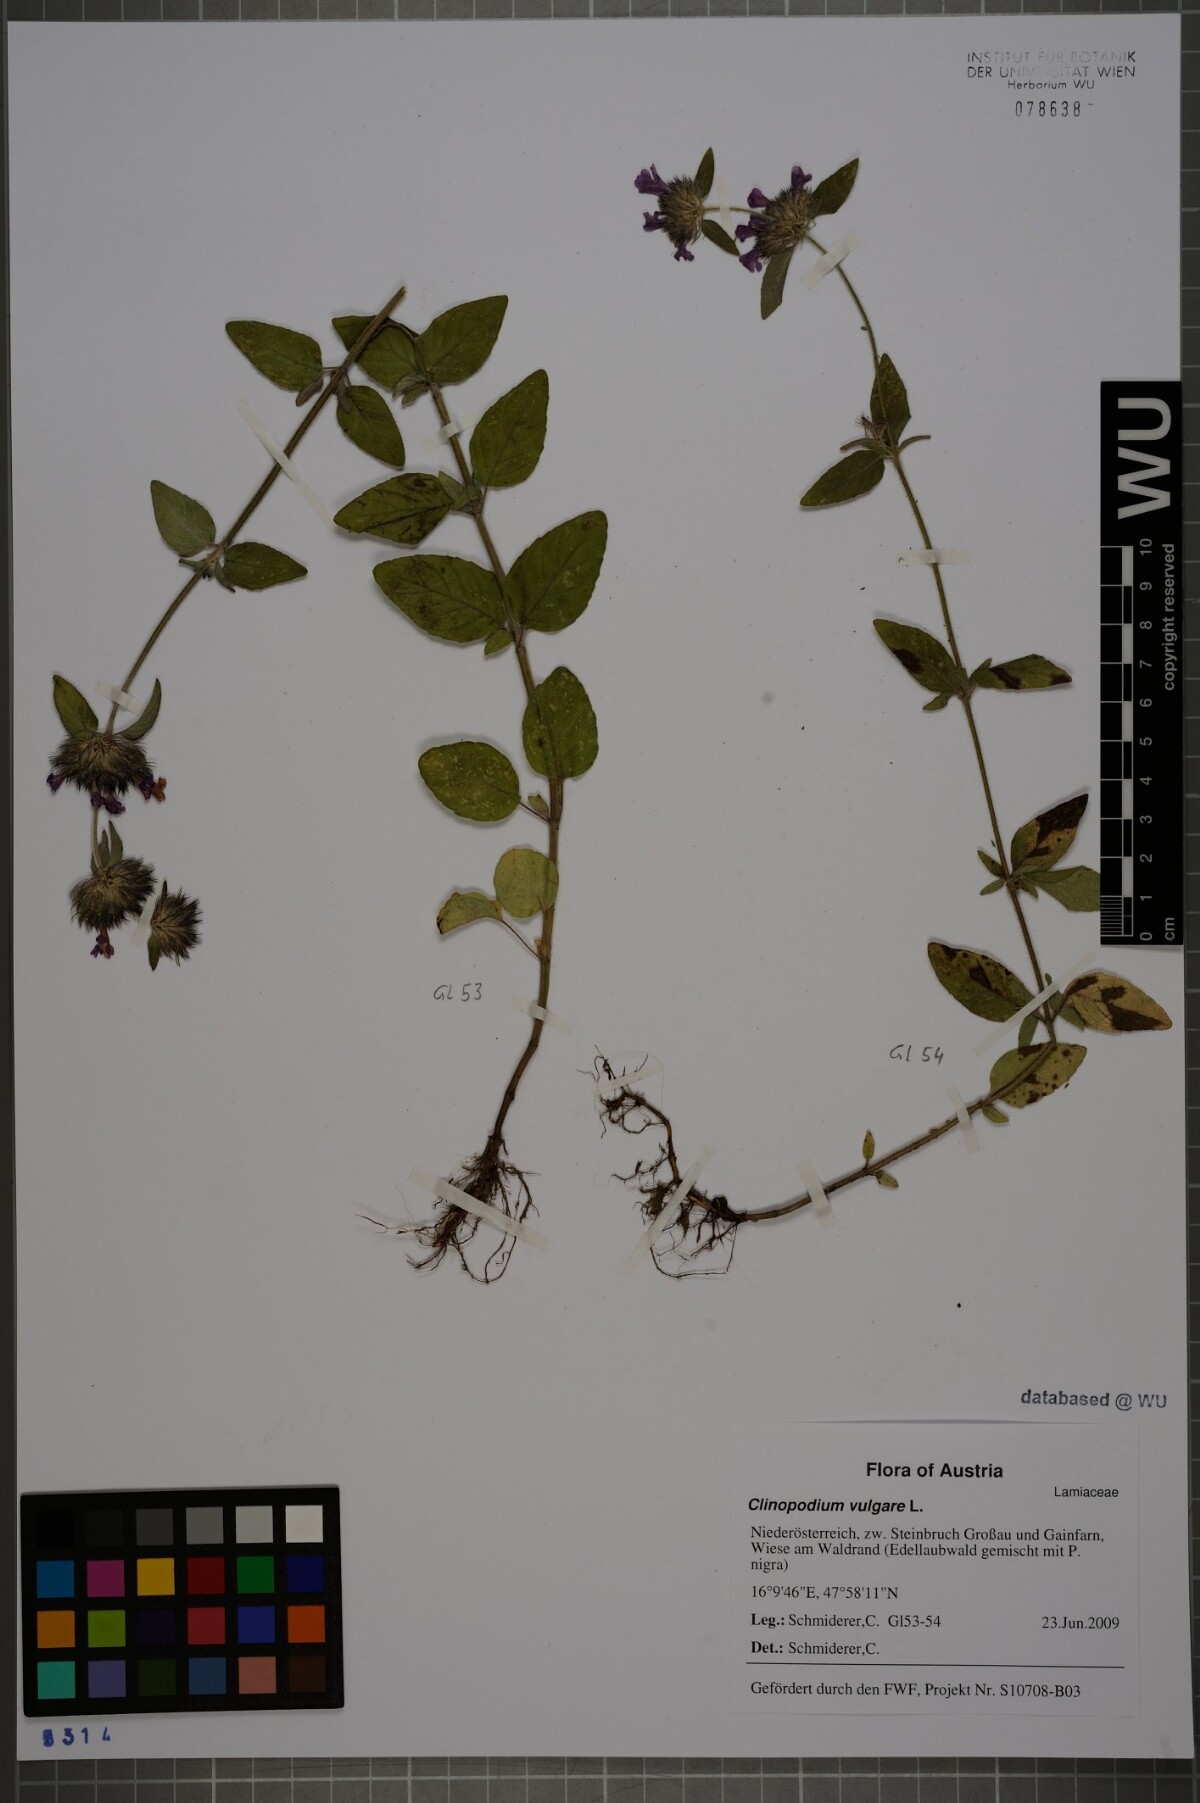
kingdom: Plantae
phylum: Tracheophyta
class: Magnoliopsida
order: Lamiales
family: Lamiaceae
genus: Clinopodium
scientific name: Clinopodium vulgare
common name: Wild basil
